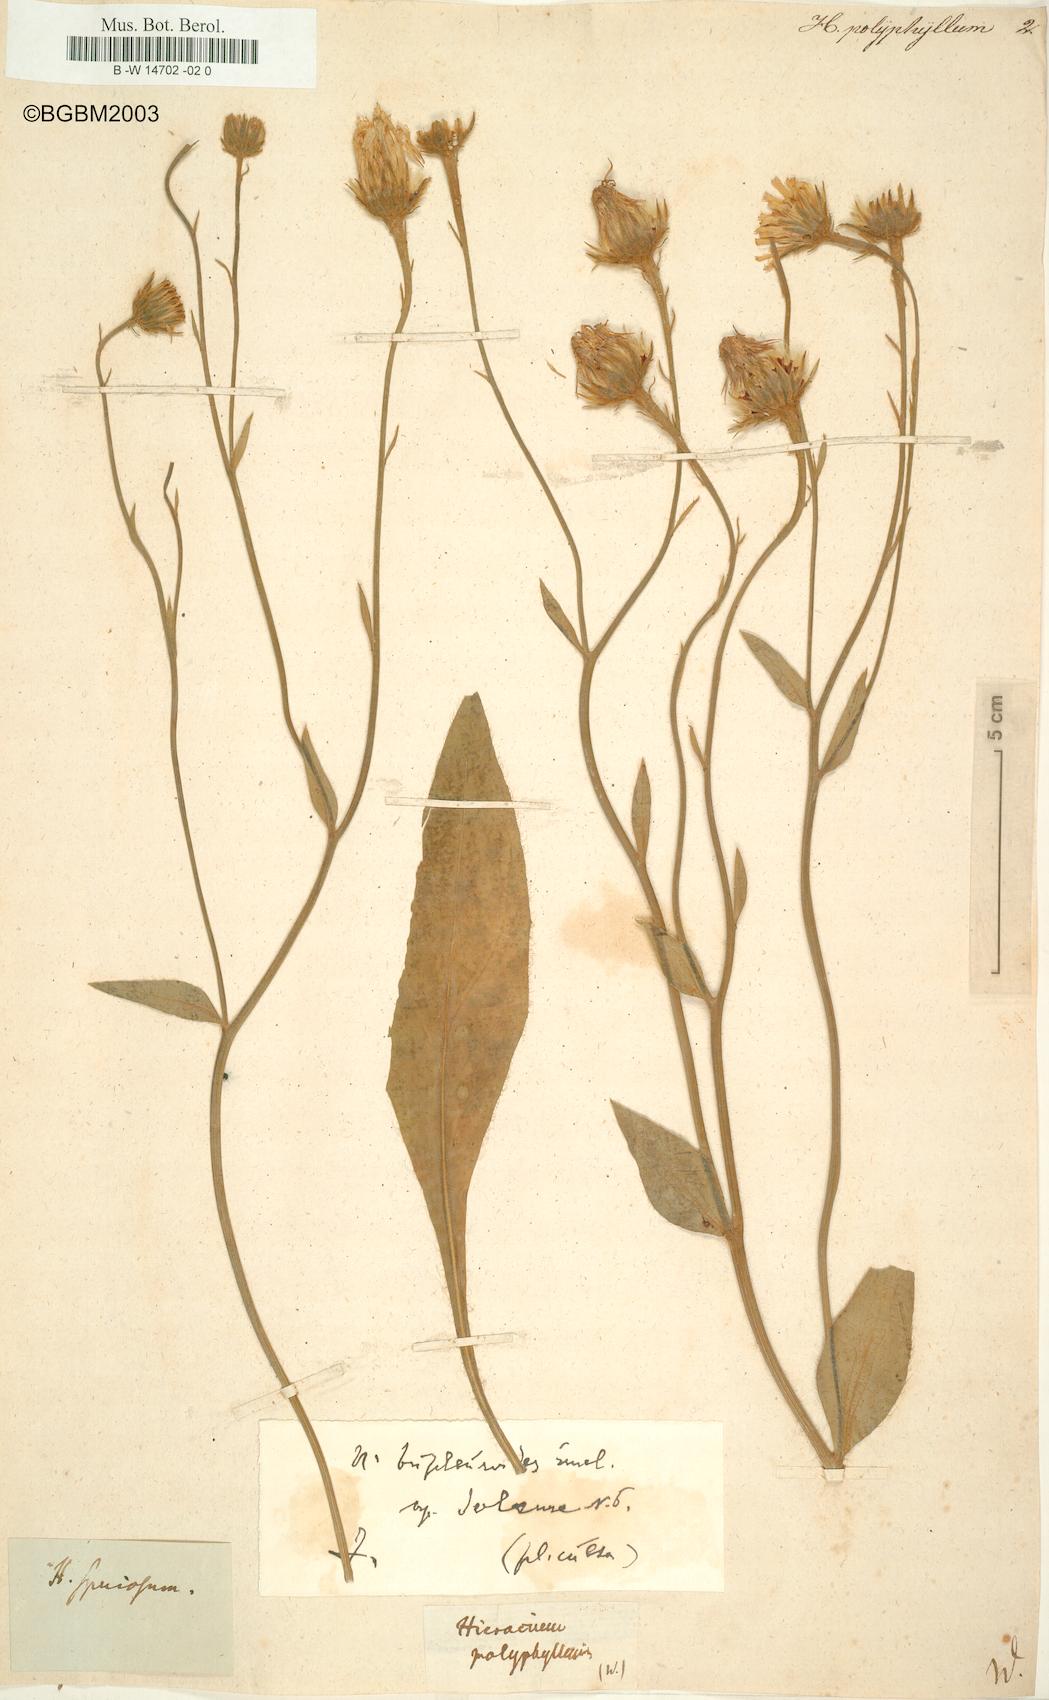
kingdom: Plantae
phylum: Tracheophyta
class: Magnoliopsida
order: Asterales
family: Asteraceae
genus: Hieracium
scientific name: Hieracium
